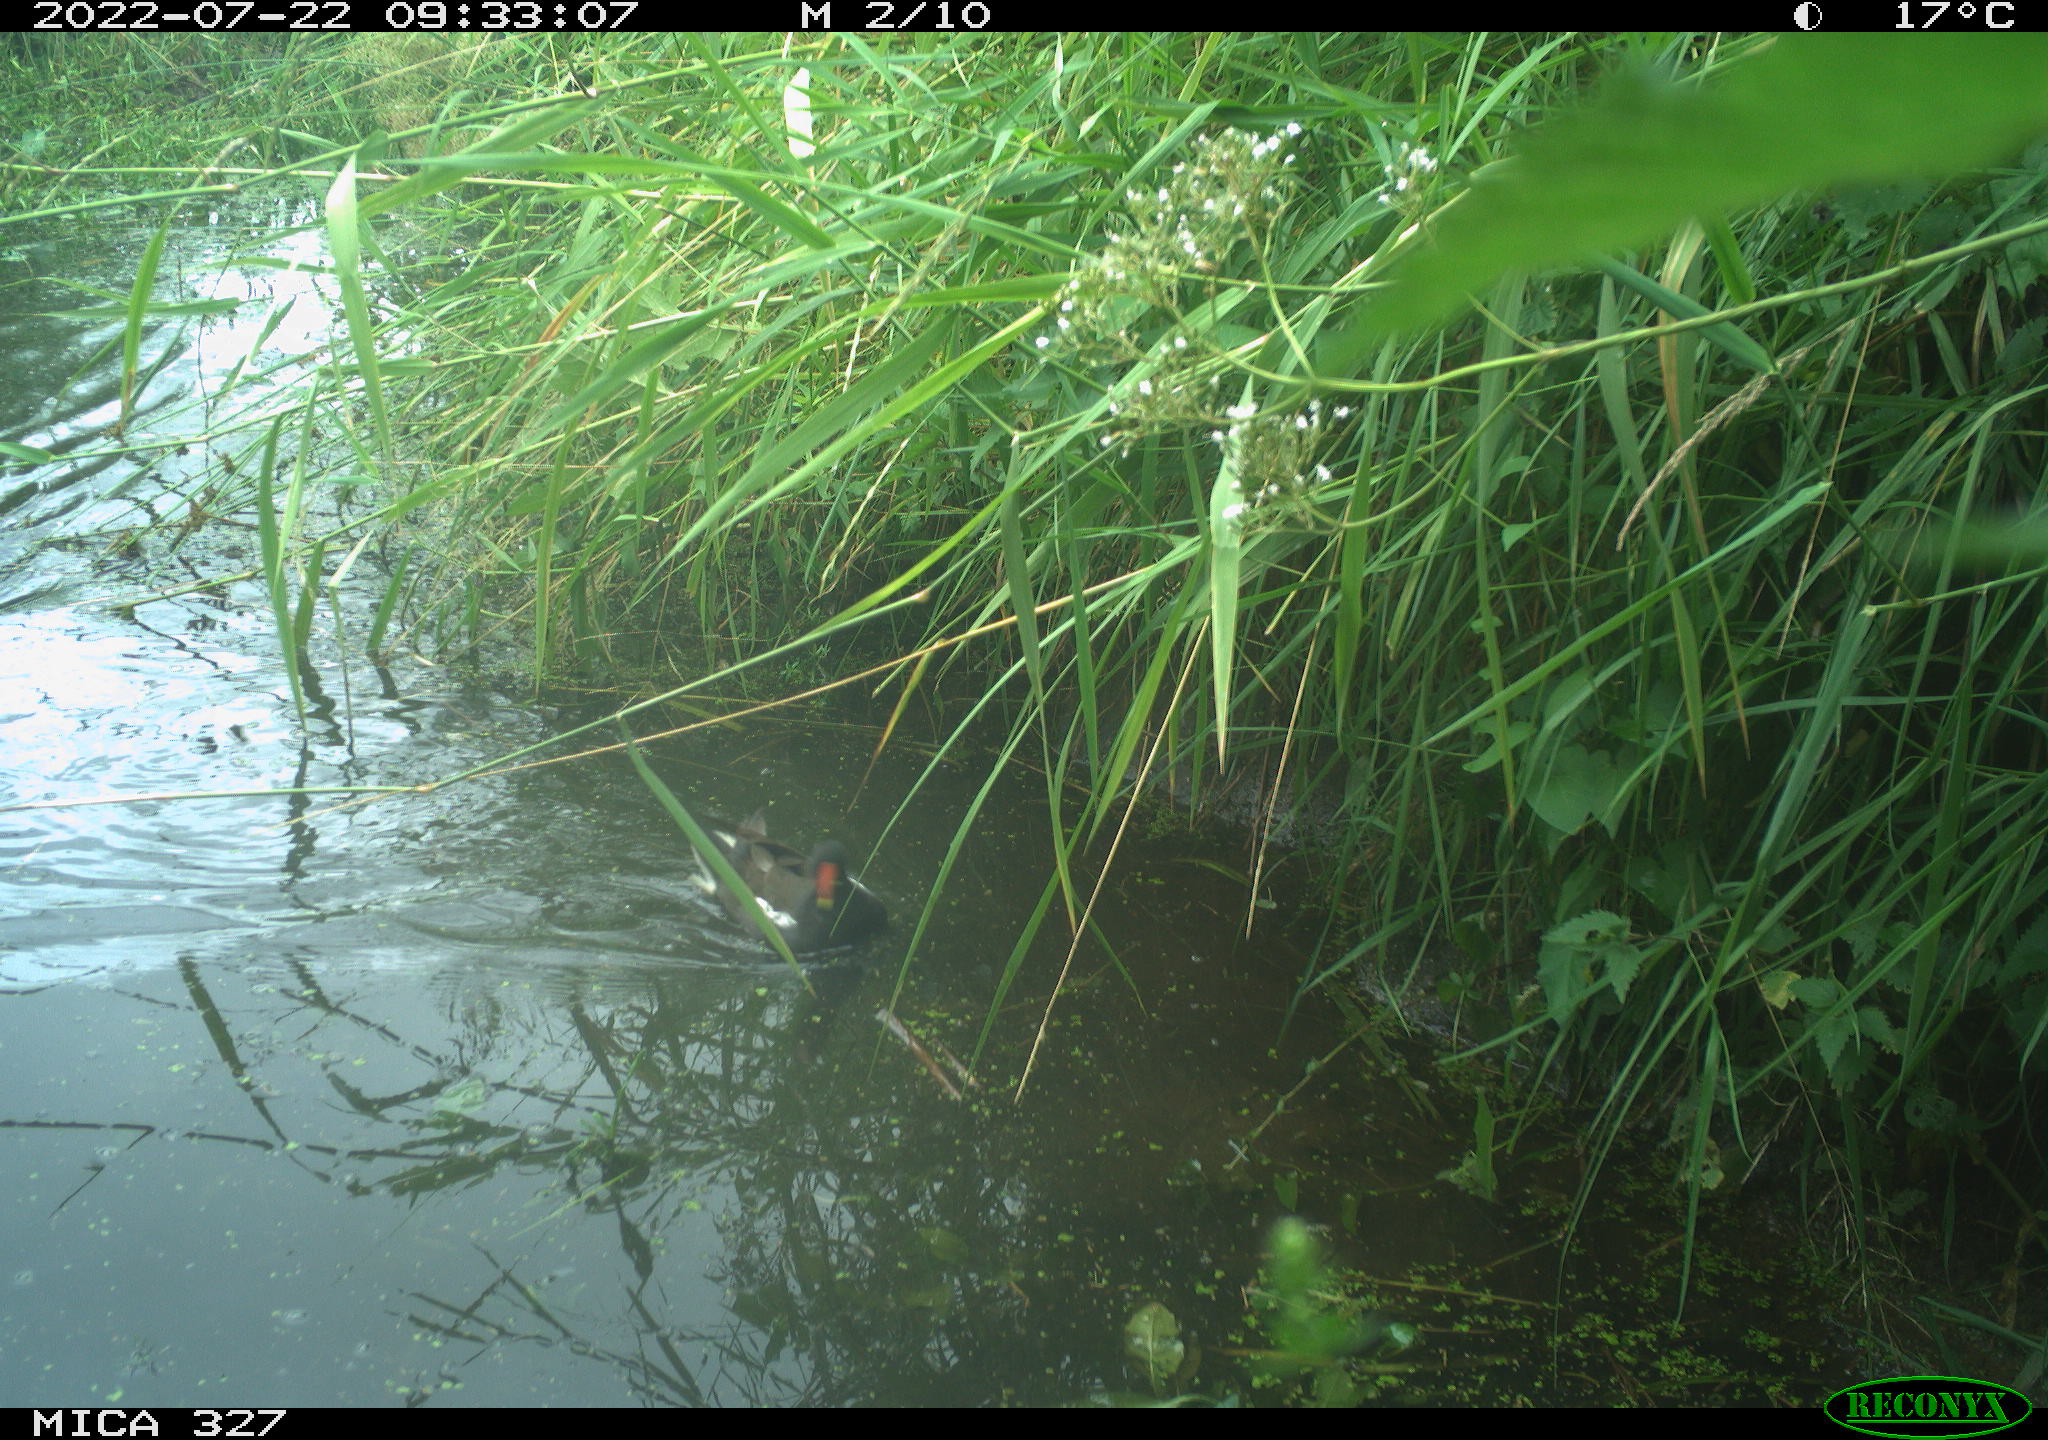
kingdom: Animalia
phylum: Chordata
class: Aves
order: Gruiformes
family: Rallidae
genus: Gallinula
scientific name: Gallinula chloropus
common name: Common moorhen
